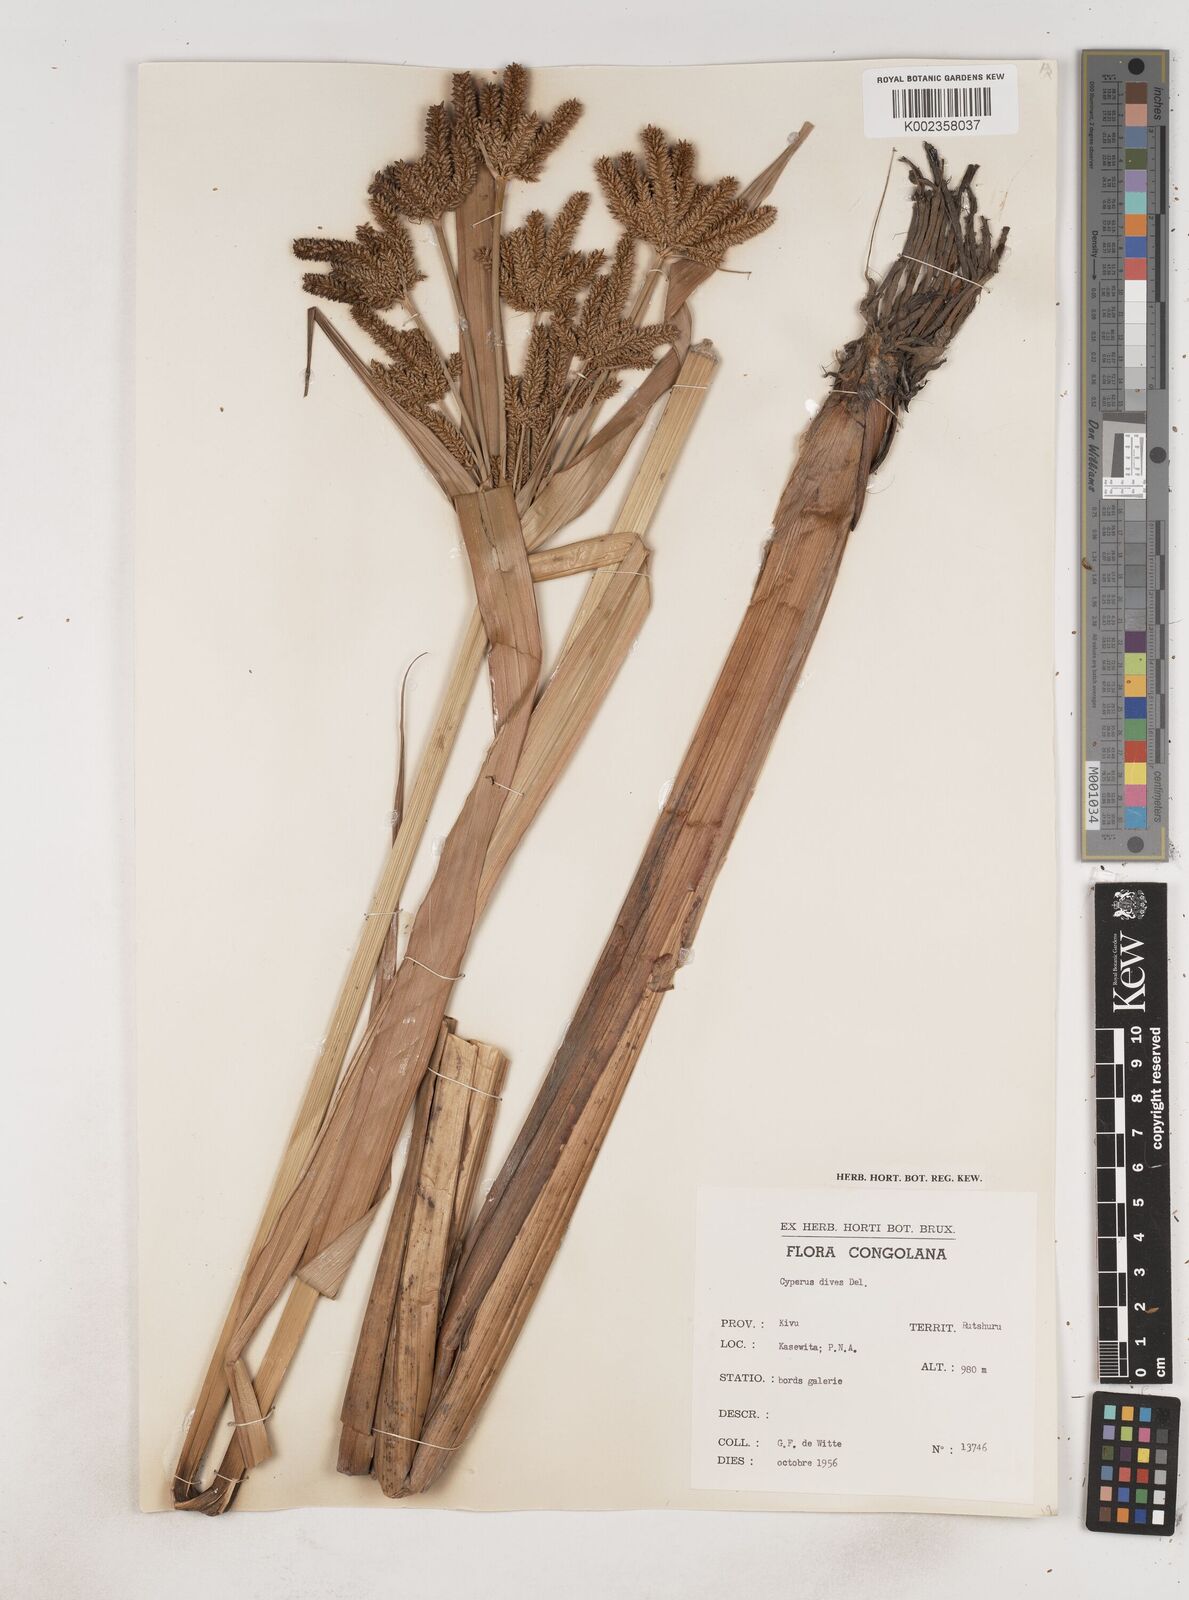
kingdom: Plantae
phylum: Tracheophyta
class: Liliopsida
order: Poales
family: Cyperaceae
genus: Cyperus
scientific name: Cyperus dives
